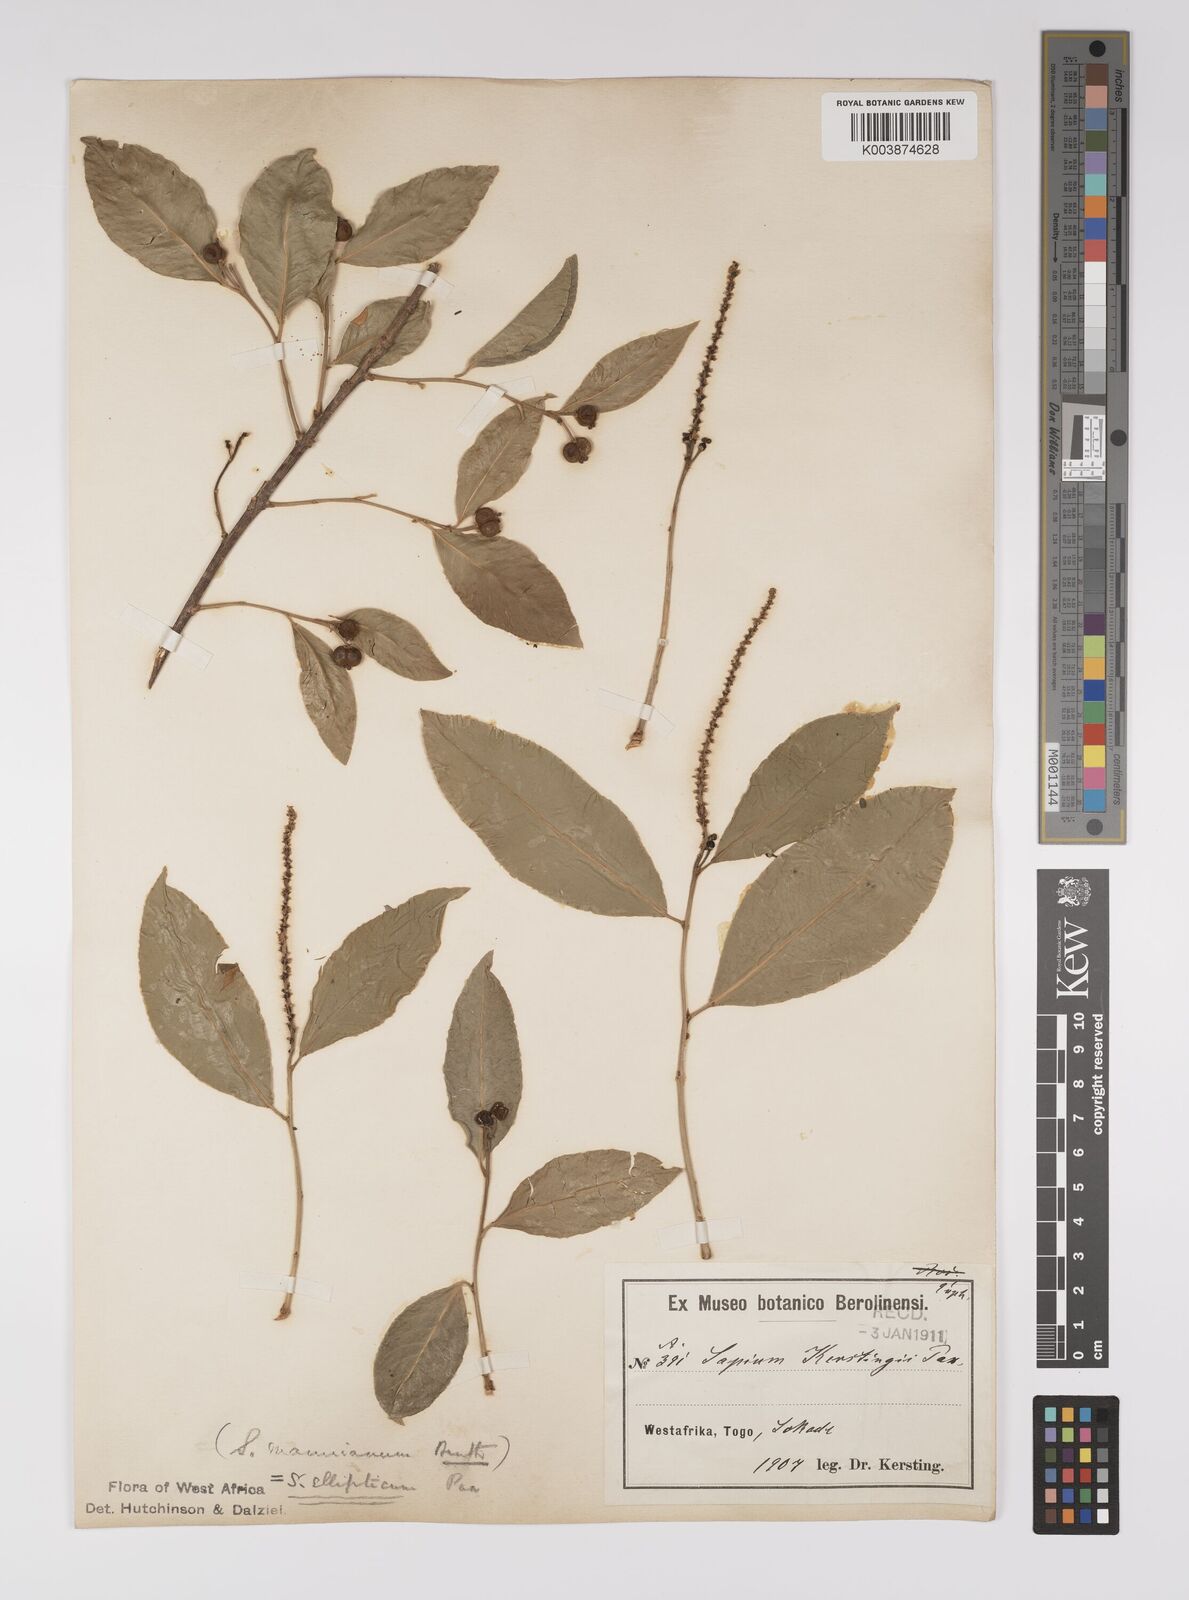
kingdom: Plantae
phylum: Tracheophyta
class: Magnoliopsida
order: Malpighiales
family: Euphorbiaceae
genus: Shirakiopsis
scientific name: Shirakiopsis elliptica
